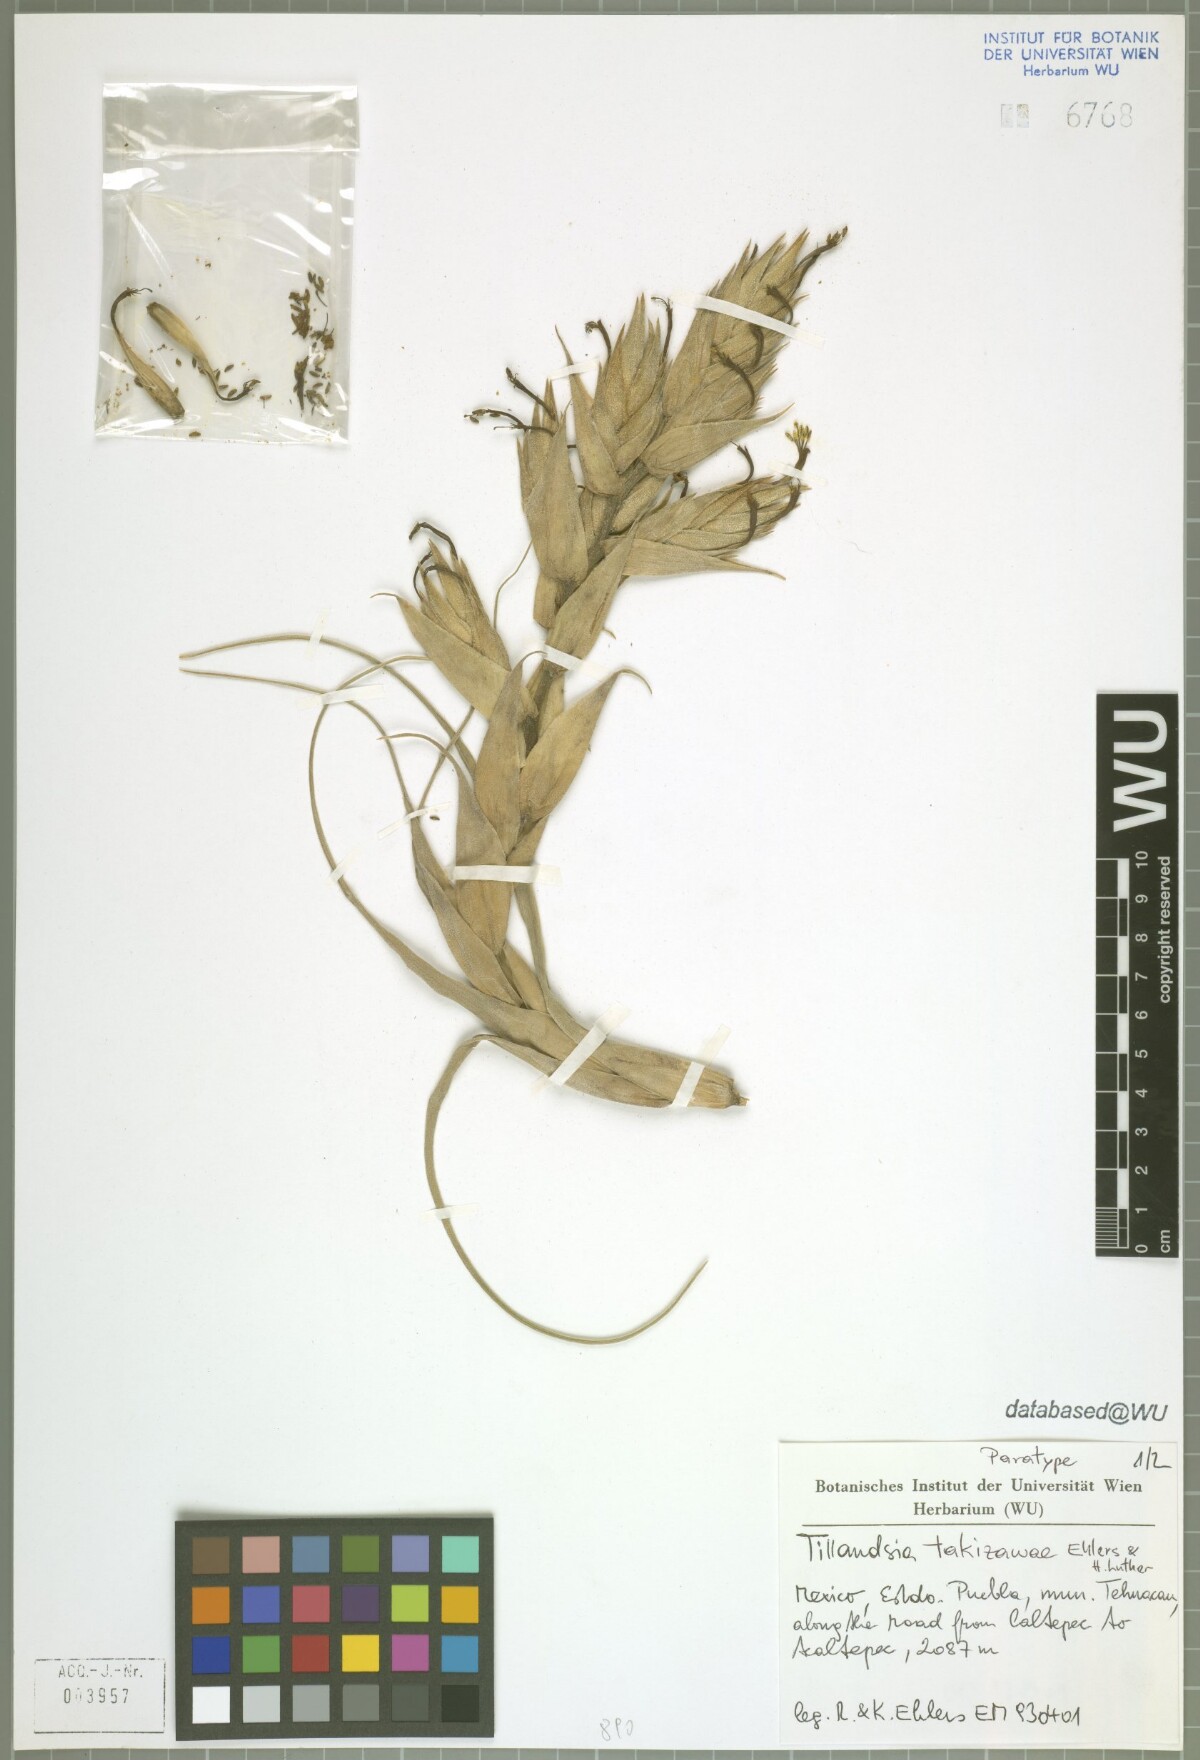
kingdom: Plantae
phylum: Tracheophyta
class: Liliopsida
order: Poales
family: Bromeliaceae
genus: Tillandsia
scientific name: Tillandsia takizawae
